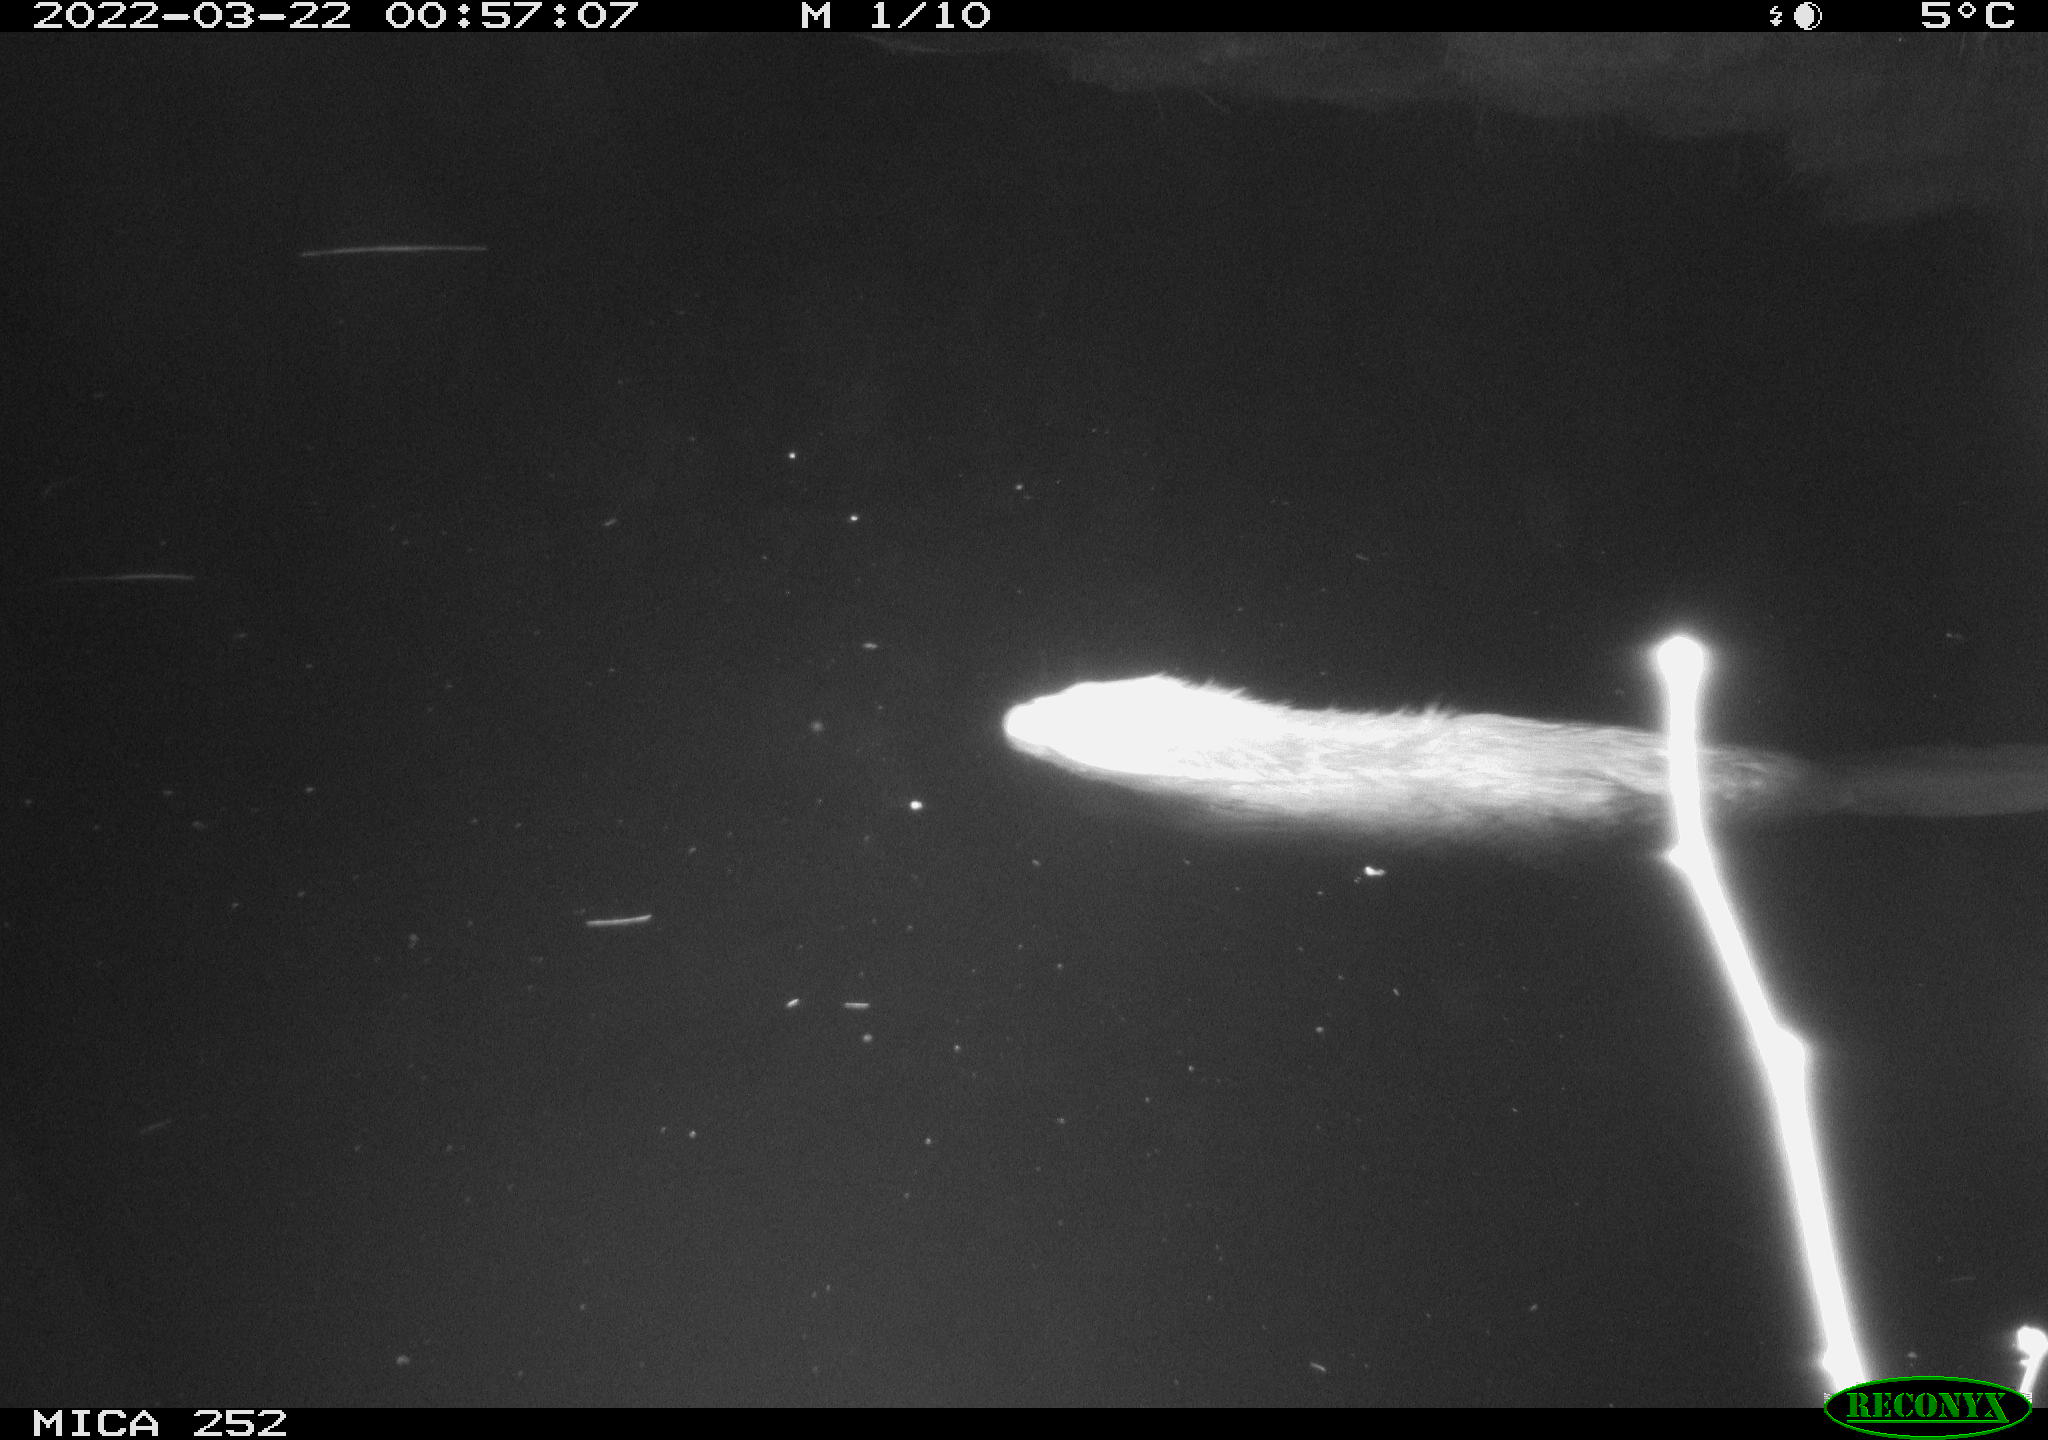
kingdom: Animalia
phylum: Chordata
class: Mammalia
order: Rodentia
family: Castoridae
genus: Castor
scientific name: Castor fiber
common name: Eurasian beaver
